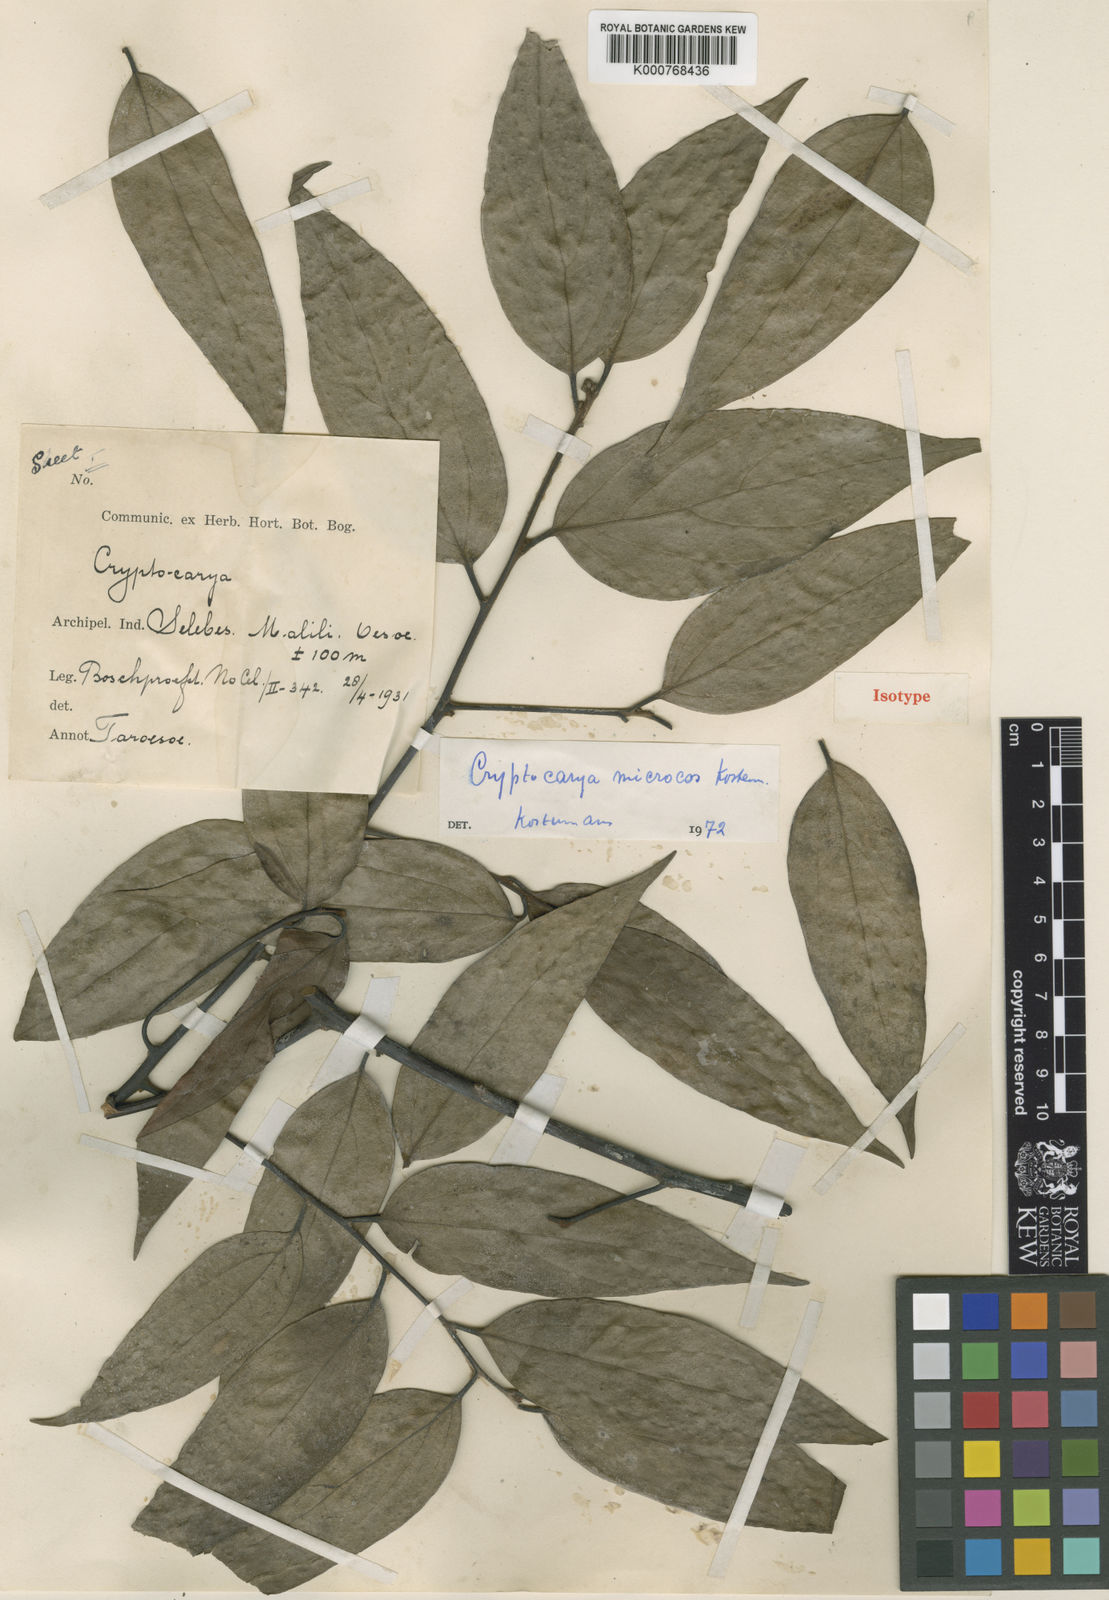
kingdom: Plantae
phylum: Tracheophyta
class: Magnoliopsida
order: Laurales
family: Lauraceae
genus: Cryptocarya
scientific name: Cryptocarya microcos
